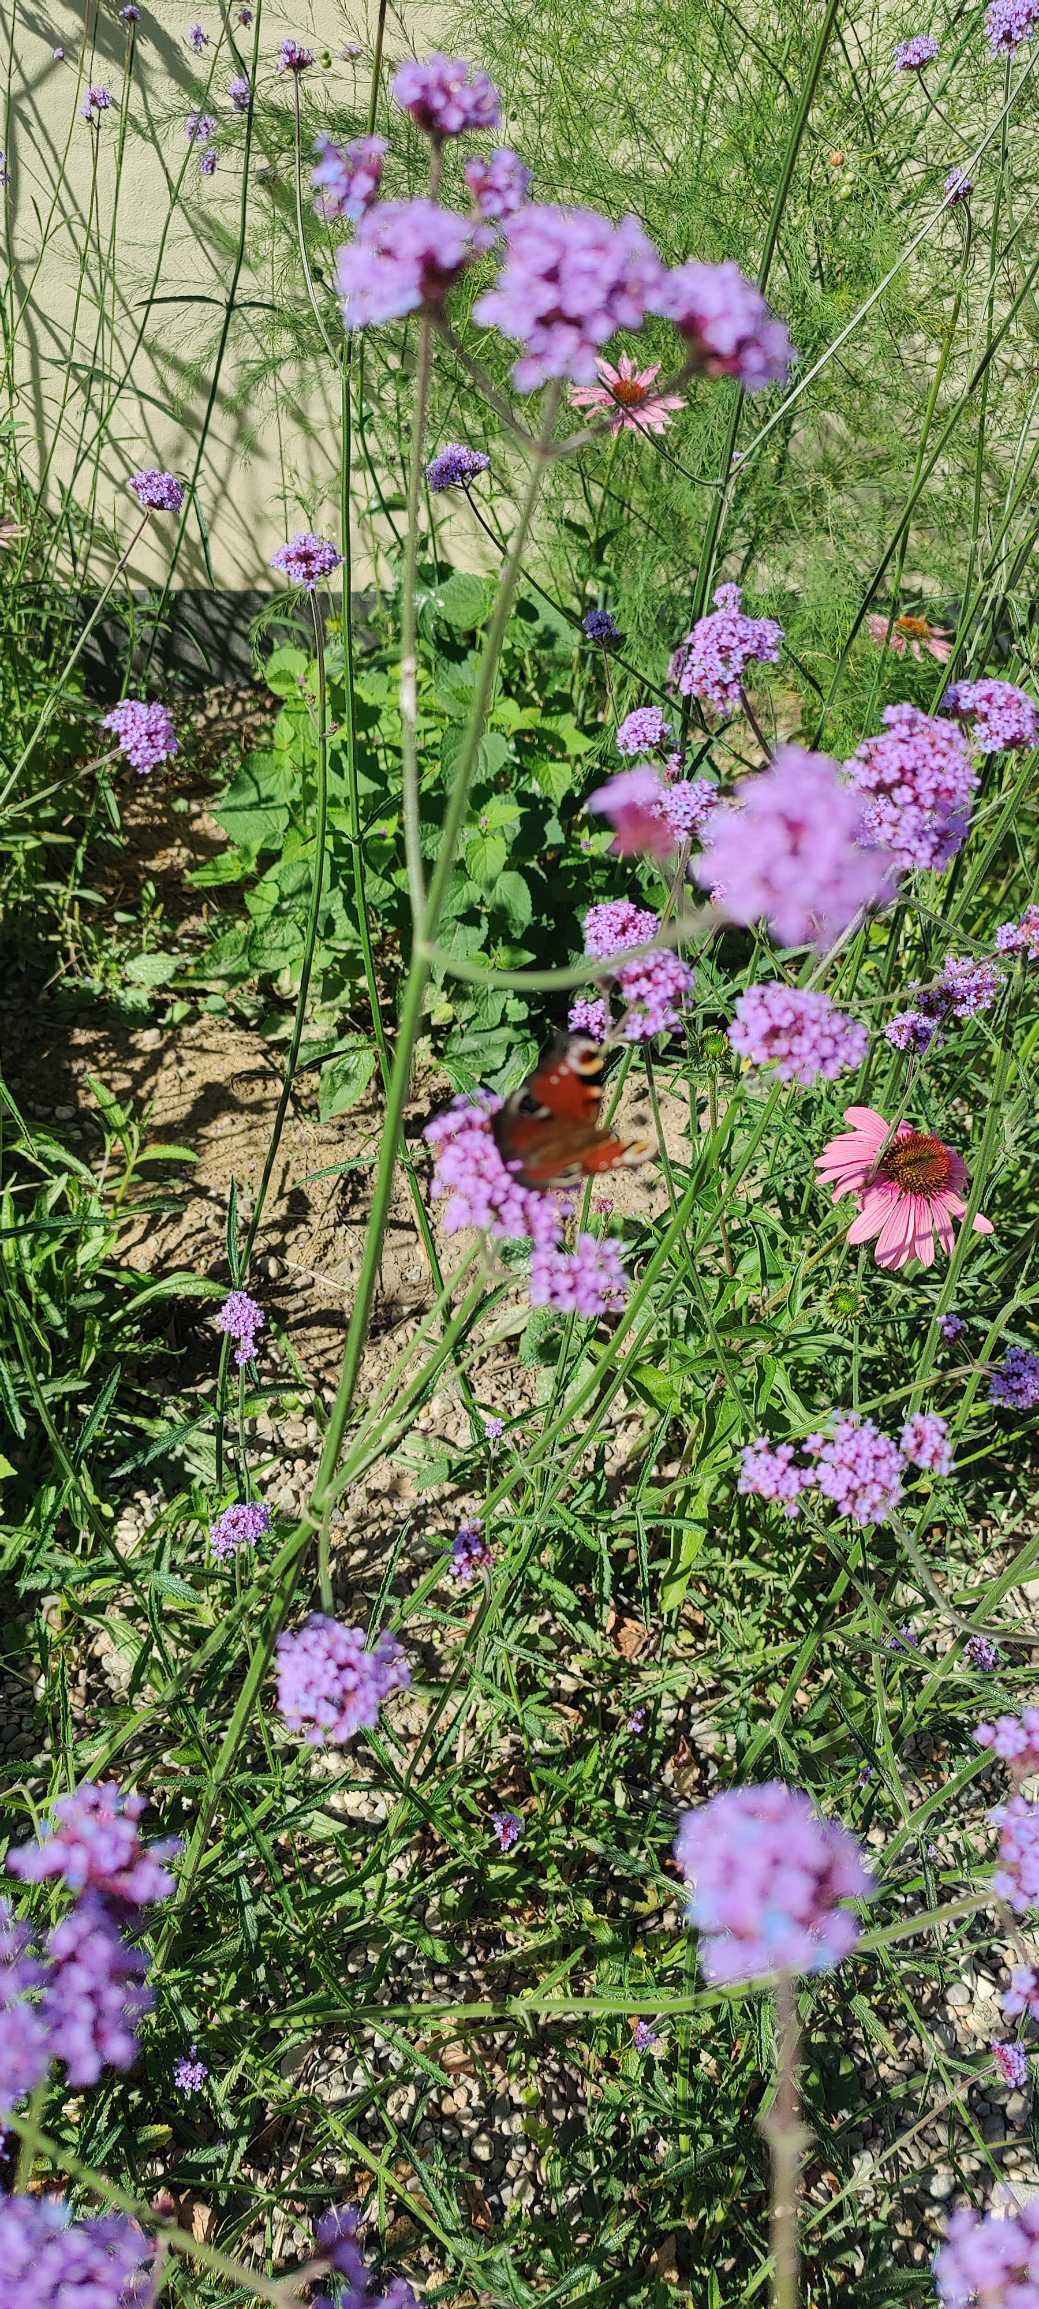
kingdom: Animalia
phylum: Arthropoda
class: Insecta
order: Lepidoptera
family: Nymphalidae
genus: Aglais
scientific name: Aglais io
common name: Dagpåfugleøje
